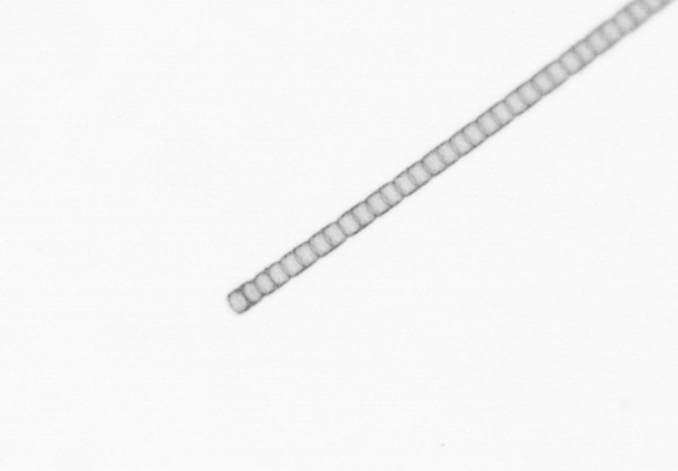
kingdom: Chromista
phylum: Ochrophyta
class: Bacillariophyceae
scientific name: Bacillariophyceae
